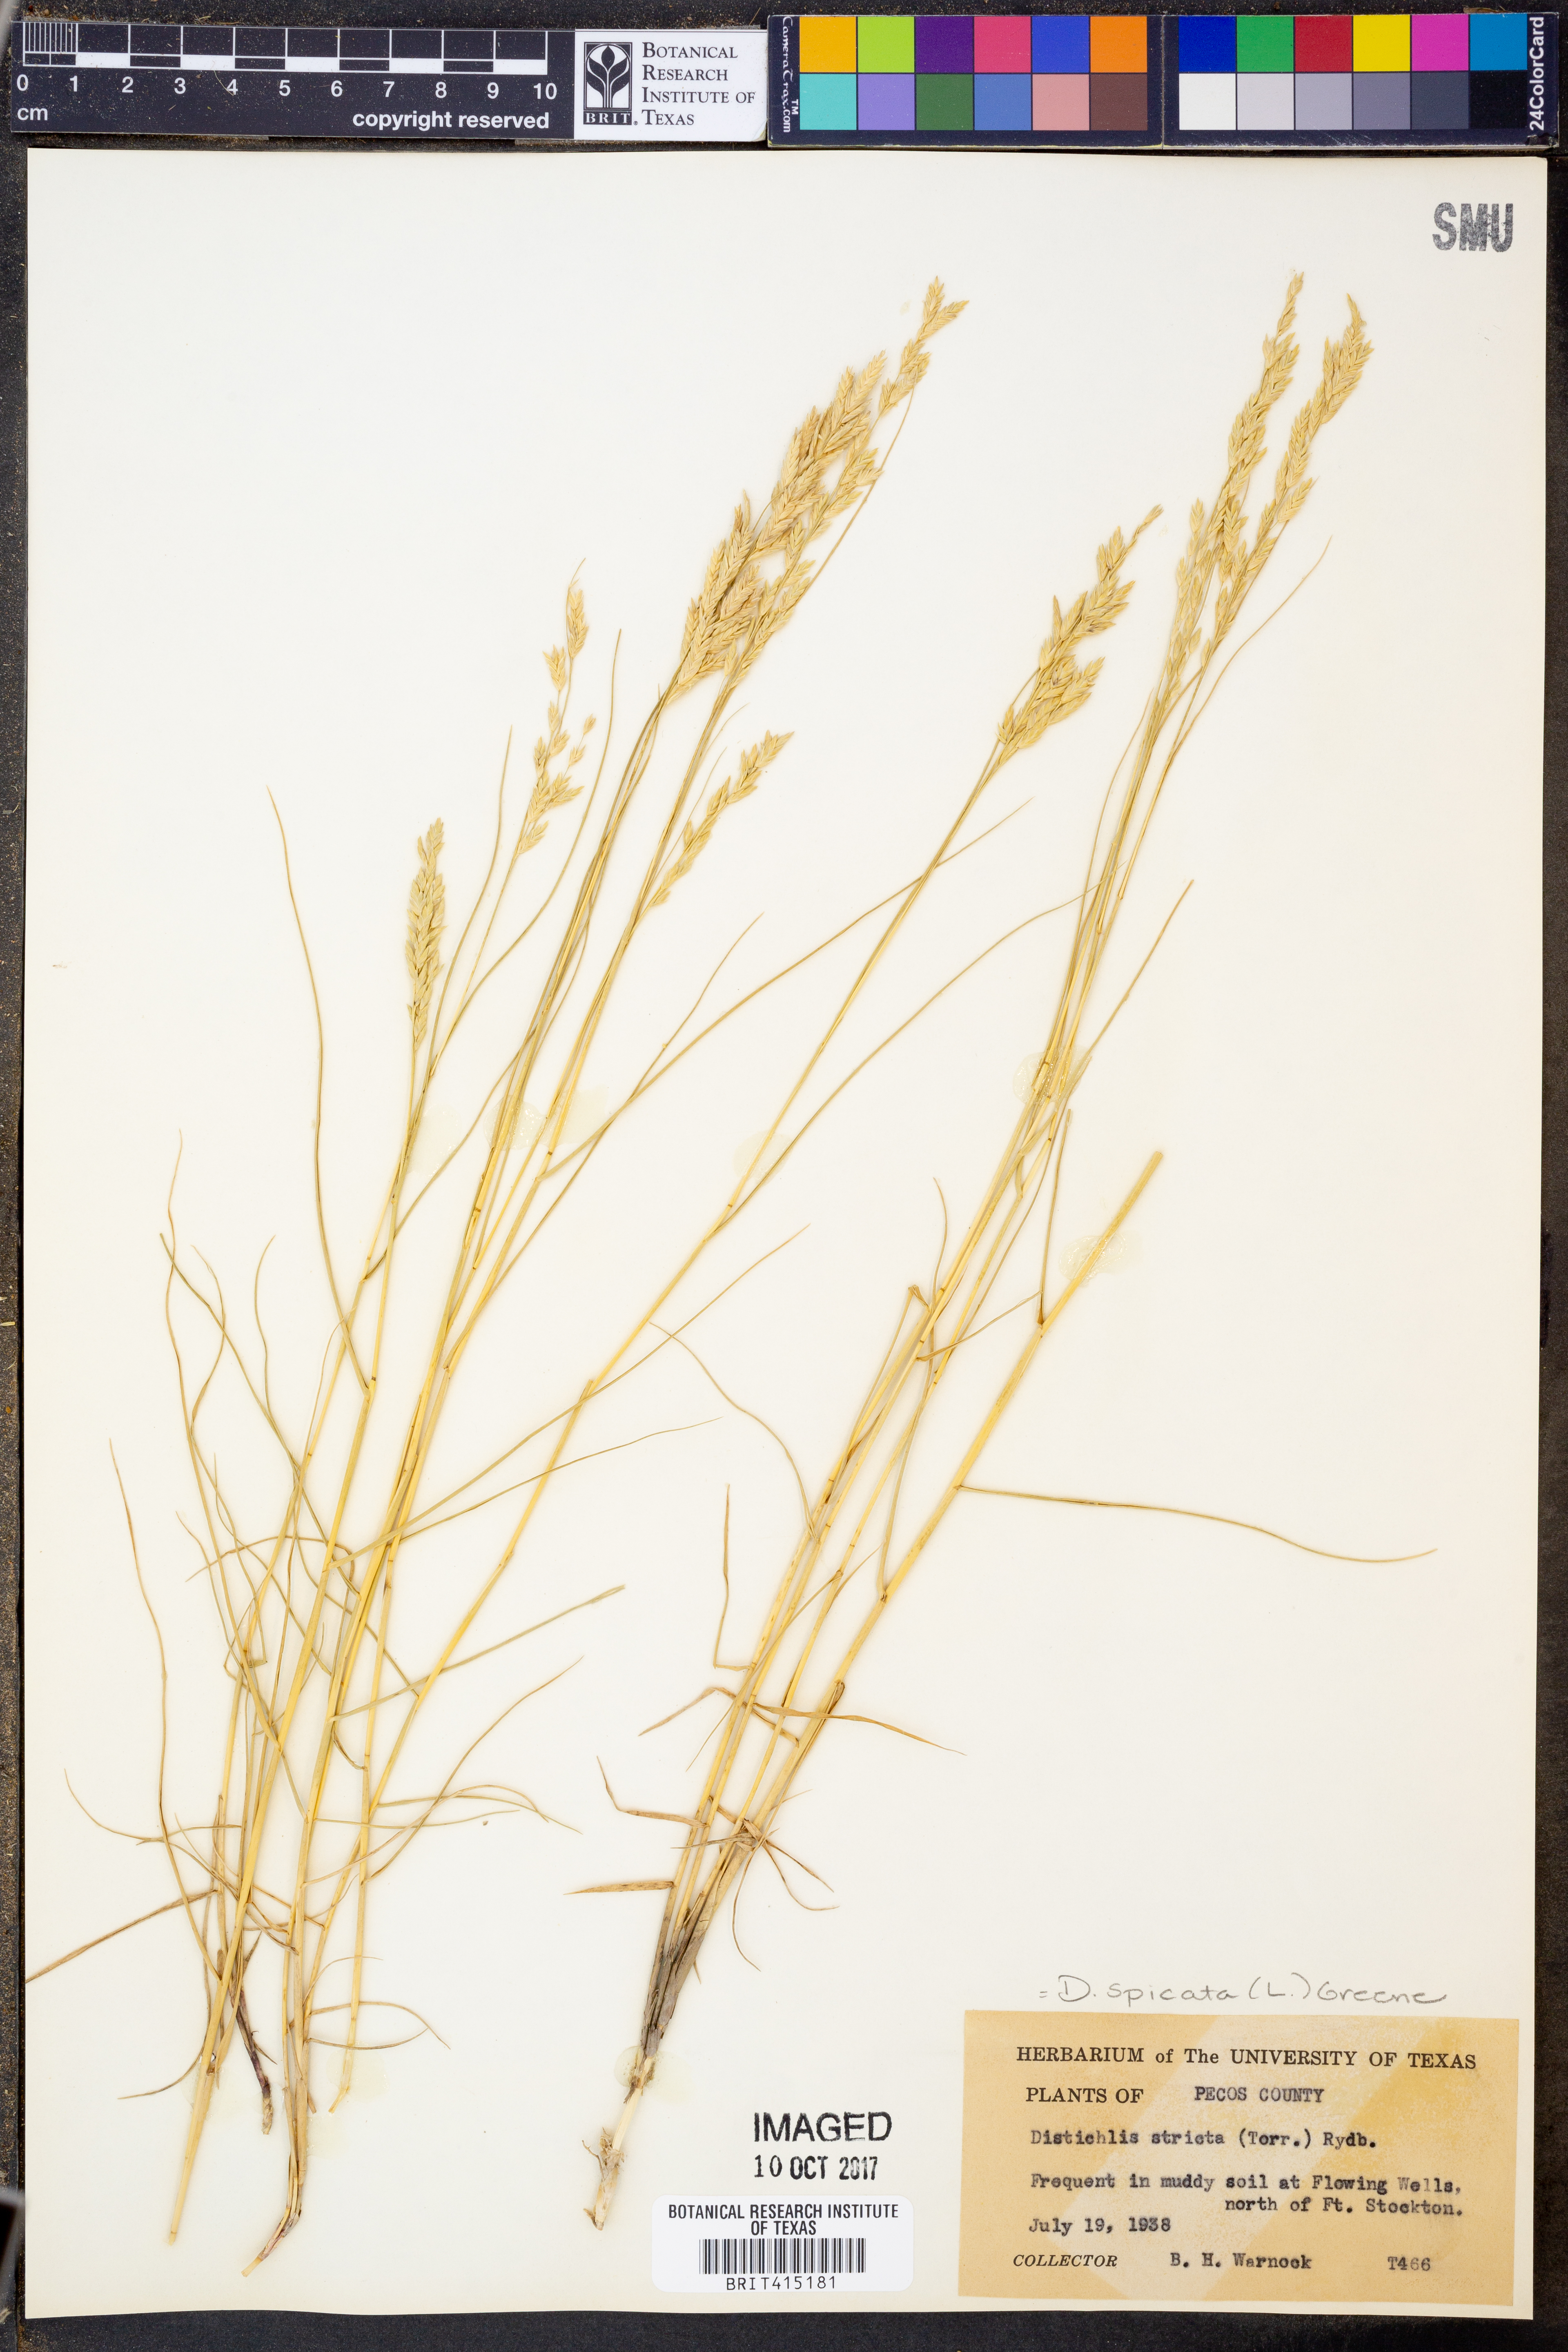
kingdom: Plantae
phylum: Tracheophyta
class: Liliopsida
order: Poales
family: Poaceae
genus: Distichlis
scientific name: Distichlis spicata
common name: Saltgrass
